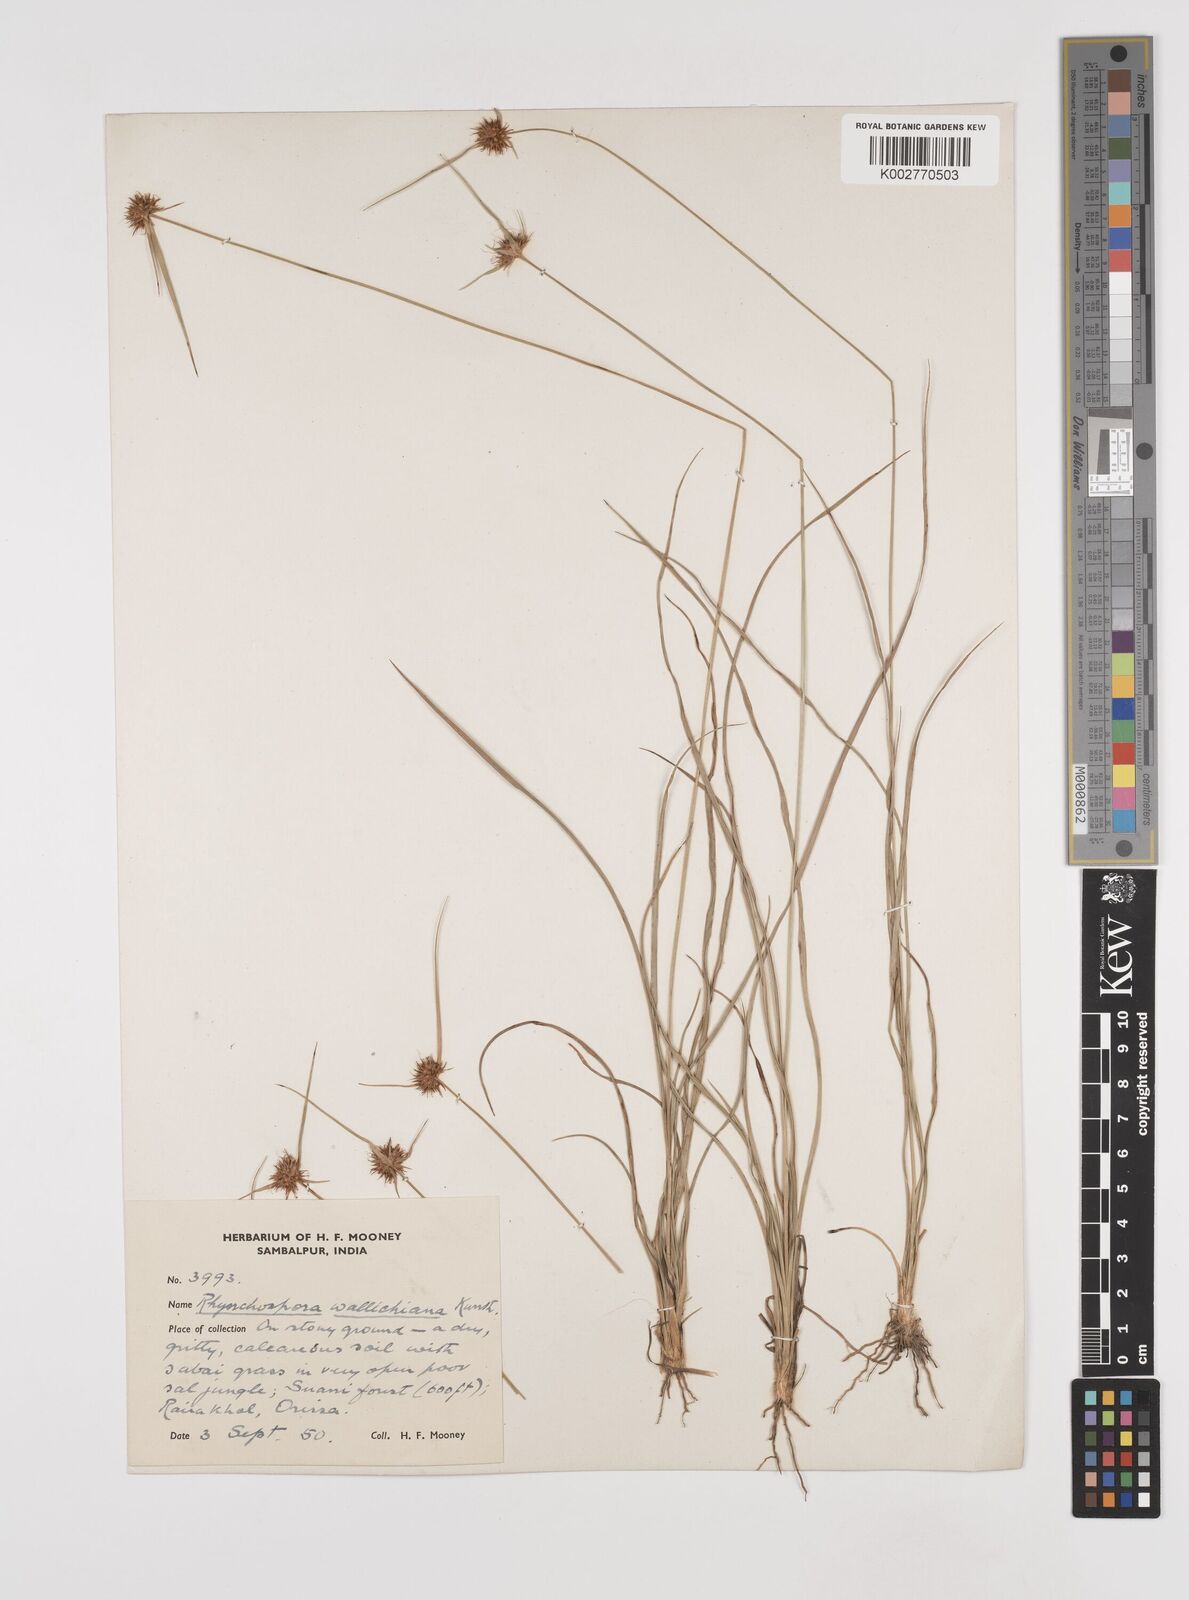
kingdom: Plantae
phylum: Tracheophyta
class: Liliopsida
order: Poales
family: Cyperaceae
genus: Rhynchospora
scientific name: Rhynchospora rubra
